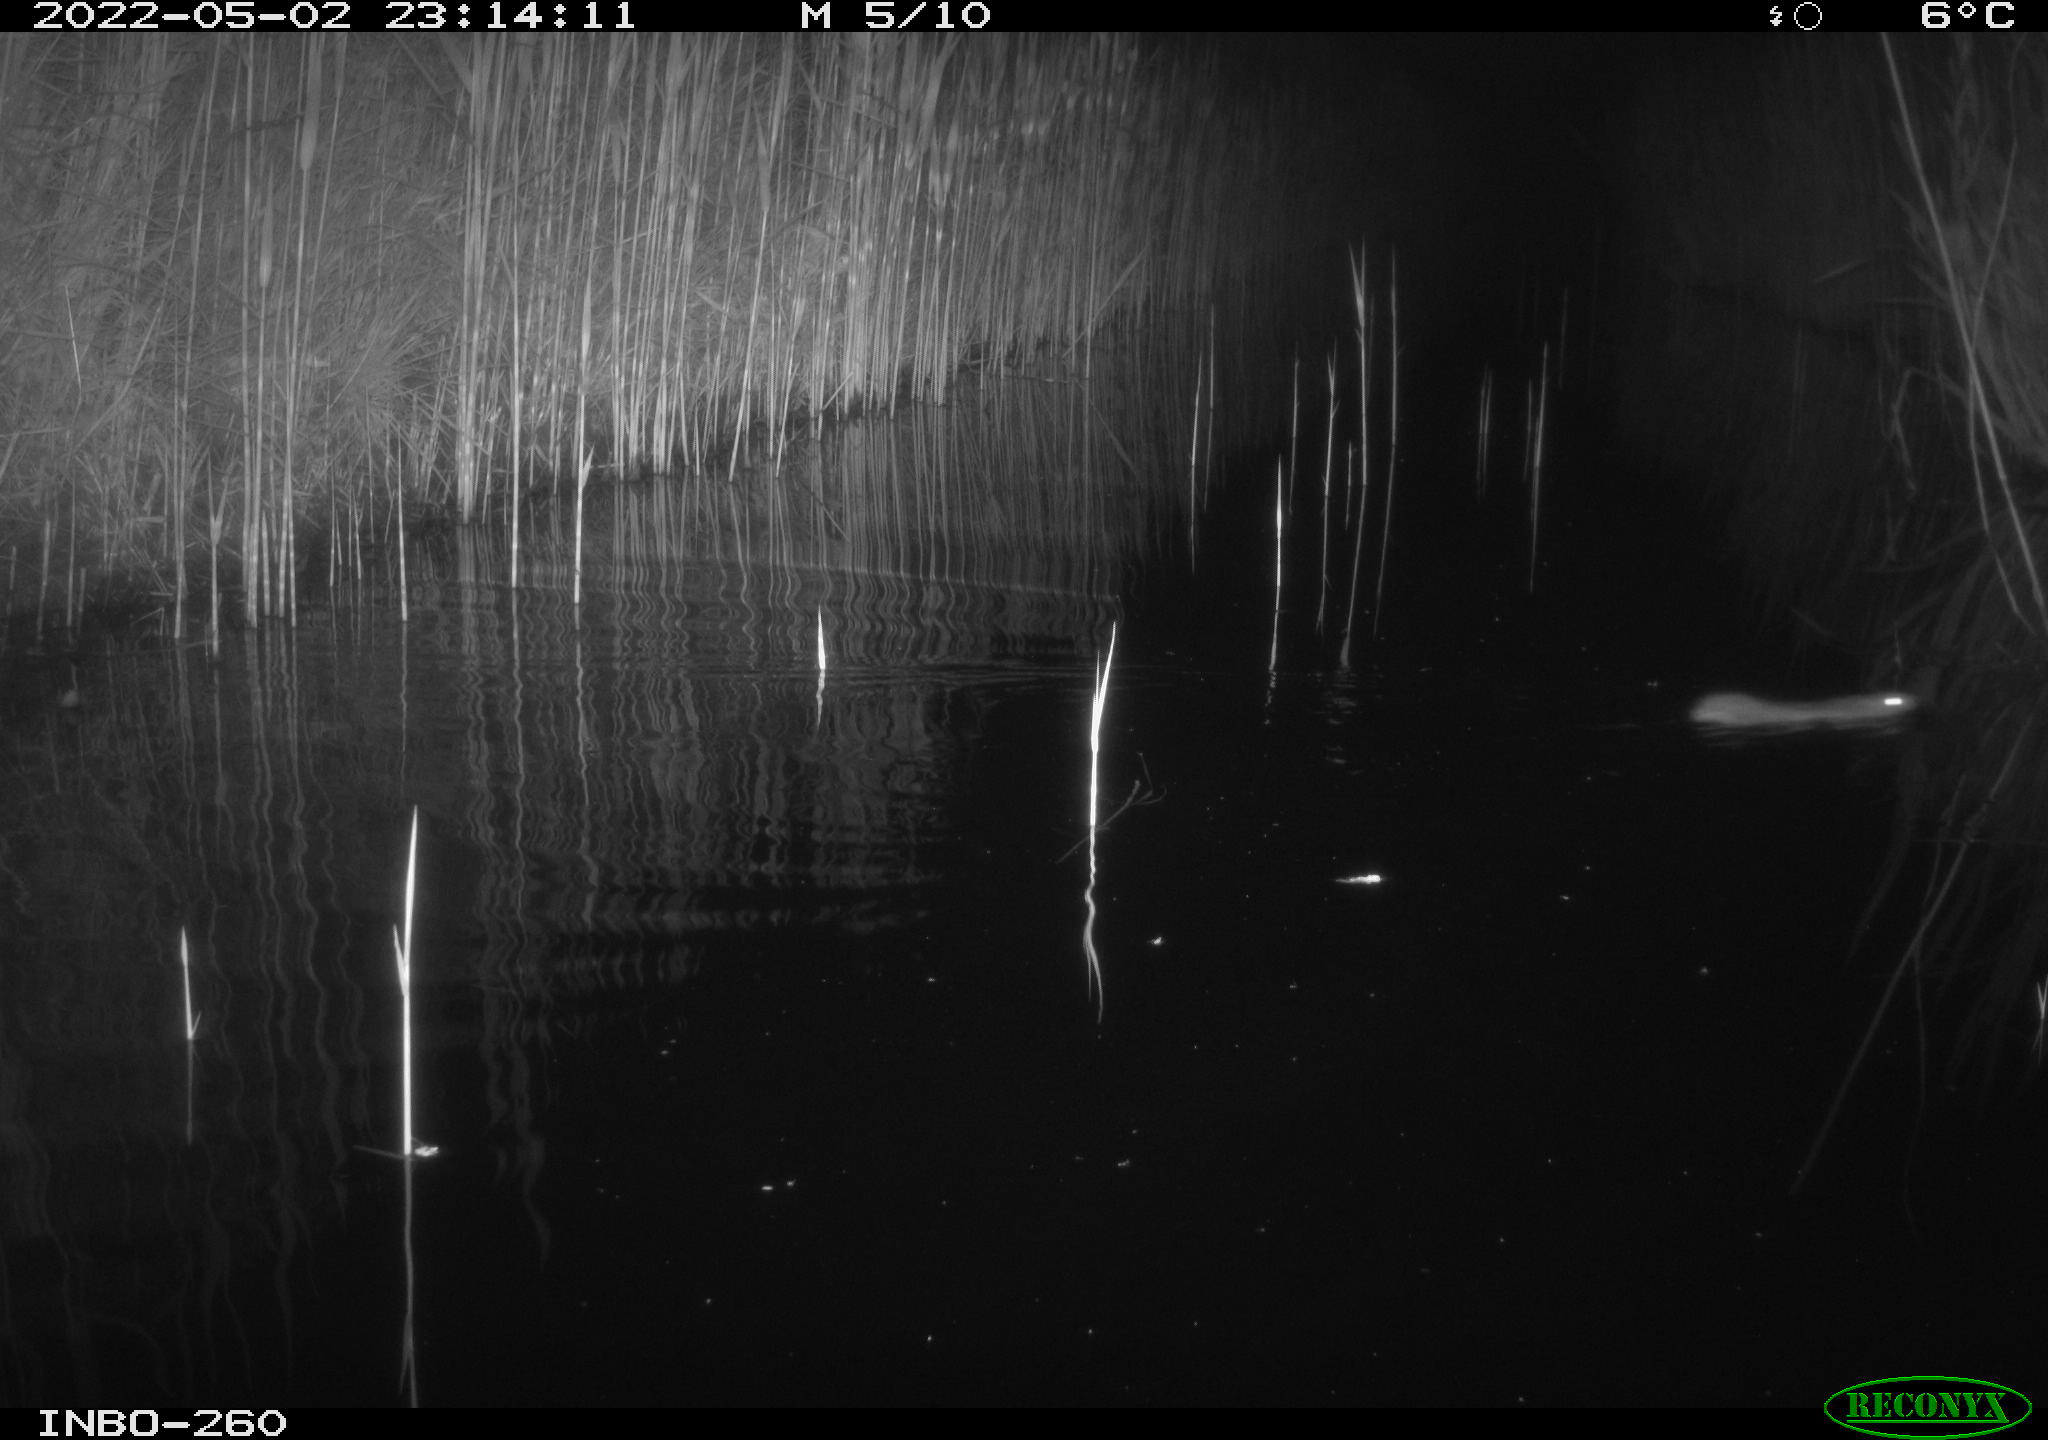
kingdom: Animalia
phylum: Chordata
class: Mammalia
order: Rodentia
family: Muridae
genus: Rattus
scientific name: Rattus norvegicus
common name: Brown rat
